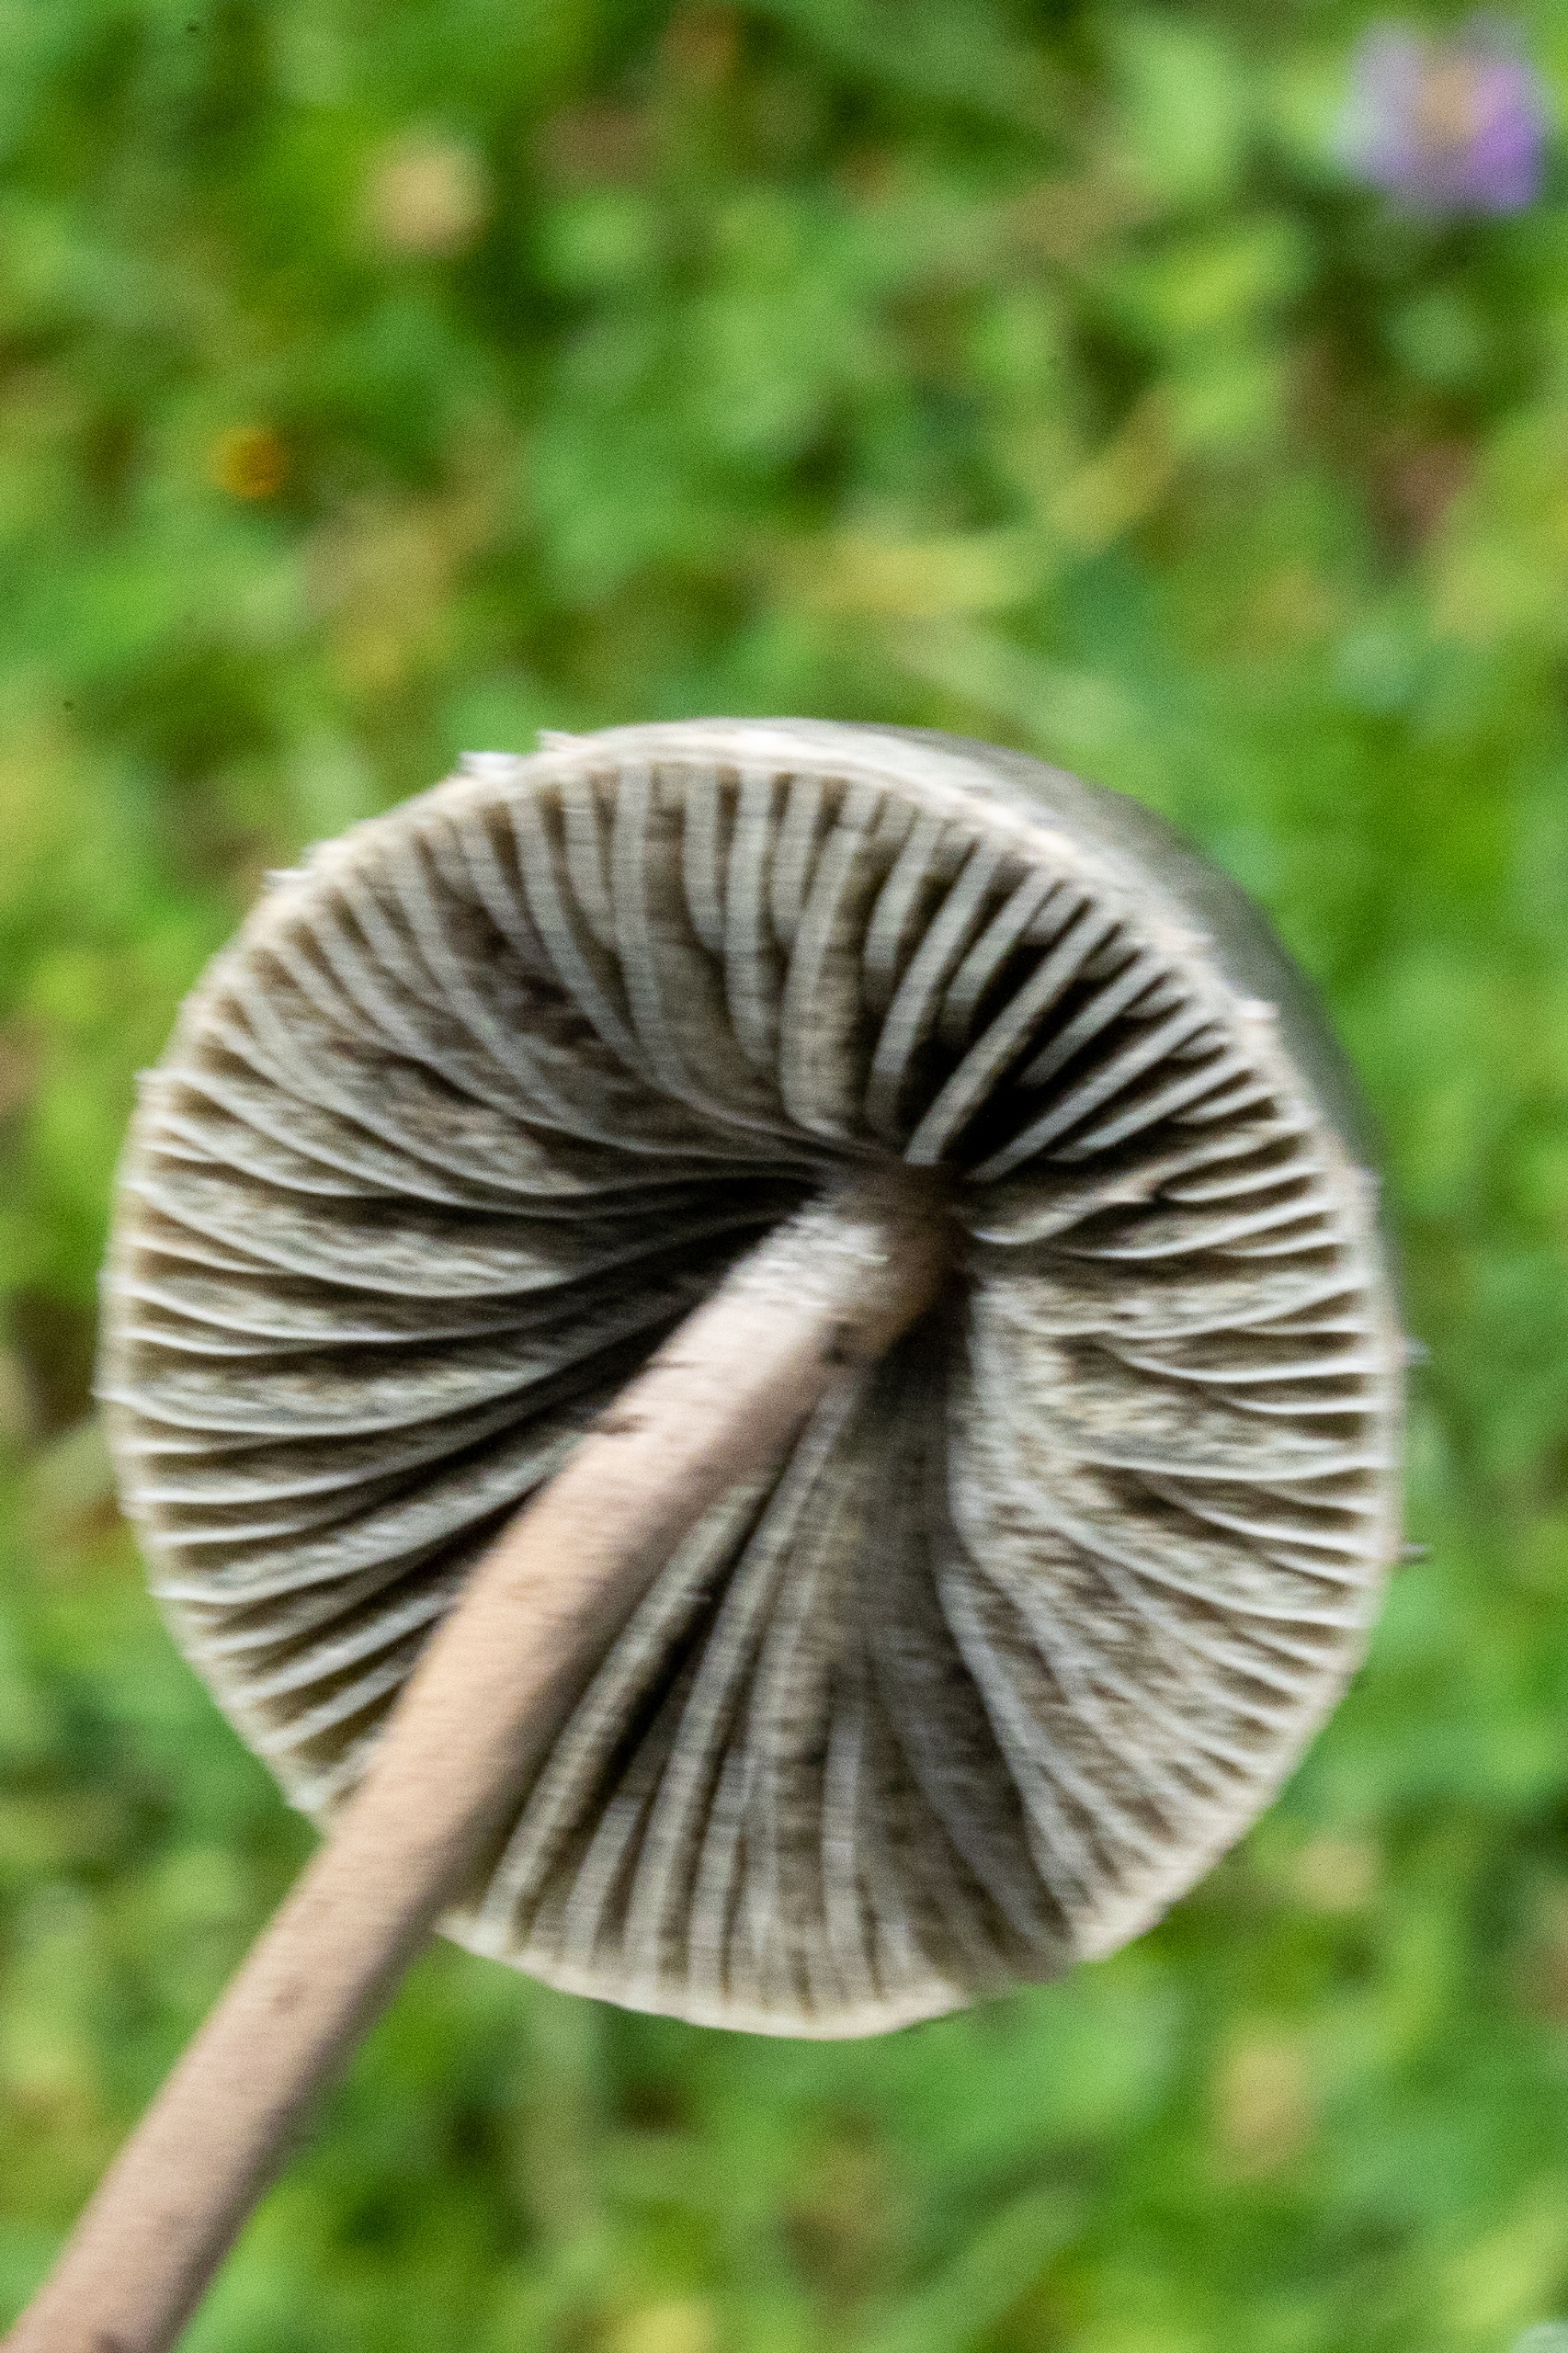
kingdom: Fungi
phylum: Basidiomycota
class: Agaricomycetes
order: Agaricales
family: Bolbitiaceae
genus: Panaeolus
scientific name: Panaeolus papilionaceus
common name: Almindelig glanshat
